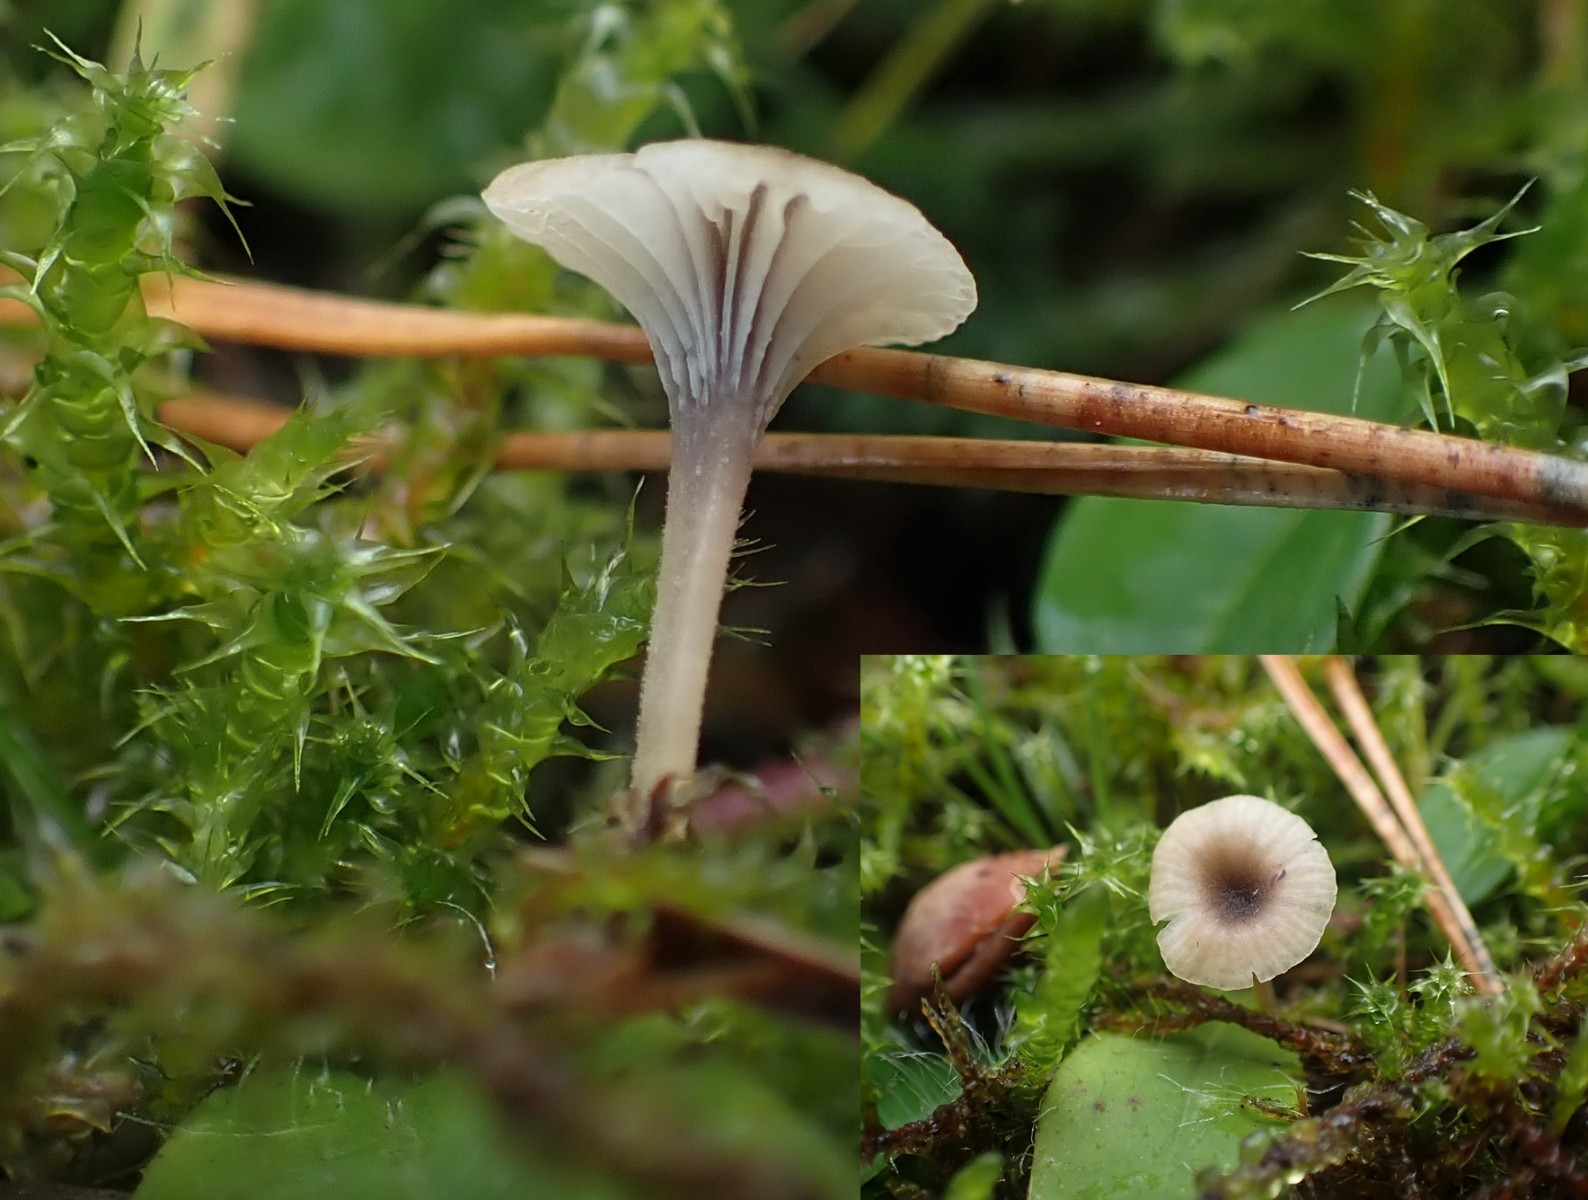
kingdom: Fungi
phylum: Basidiomycota
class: Agaricomycetes
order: Hymenochaetales
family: Rickenellaceae
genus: Rickenella
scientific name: Rickenella swartzii
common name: finstokket mosnavlehat
